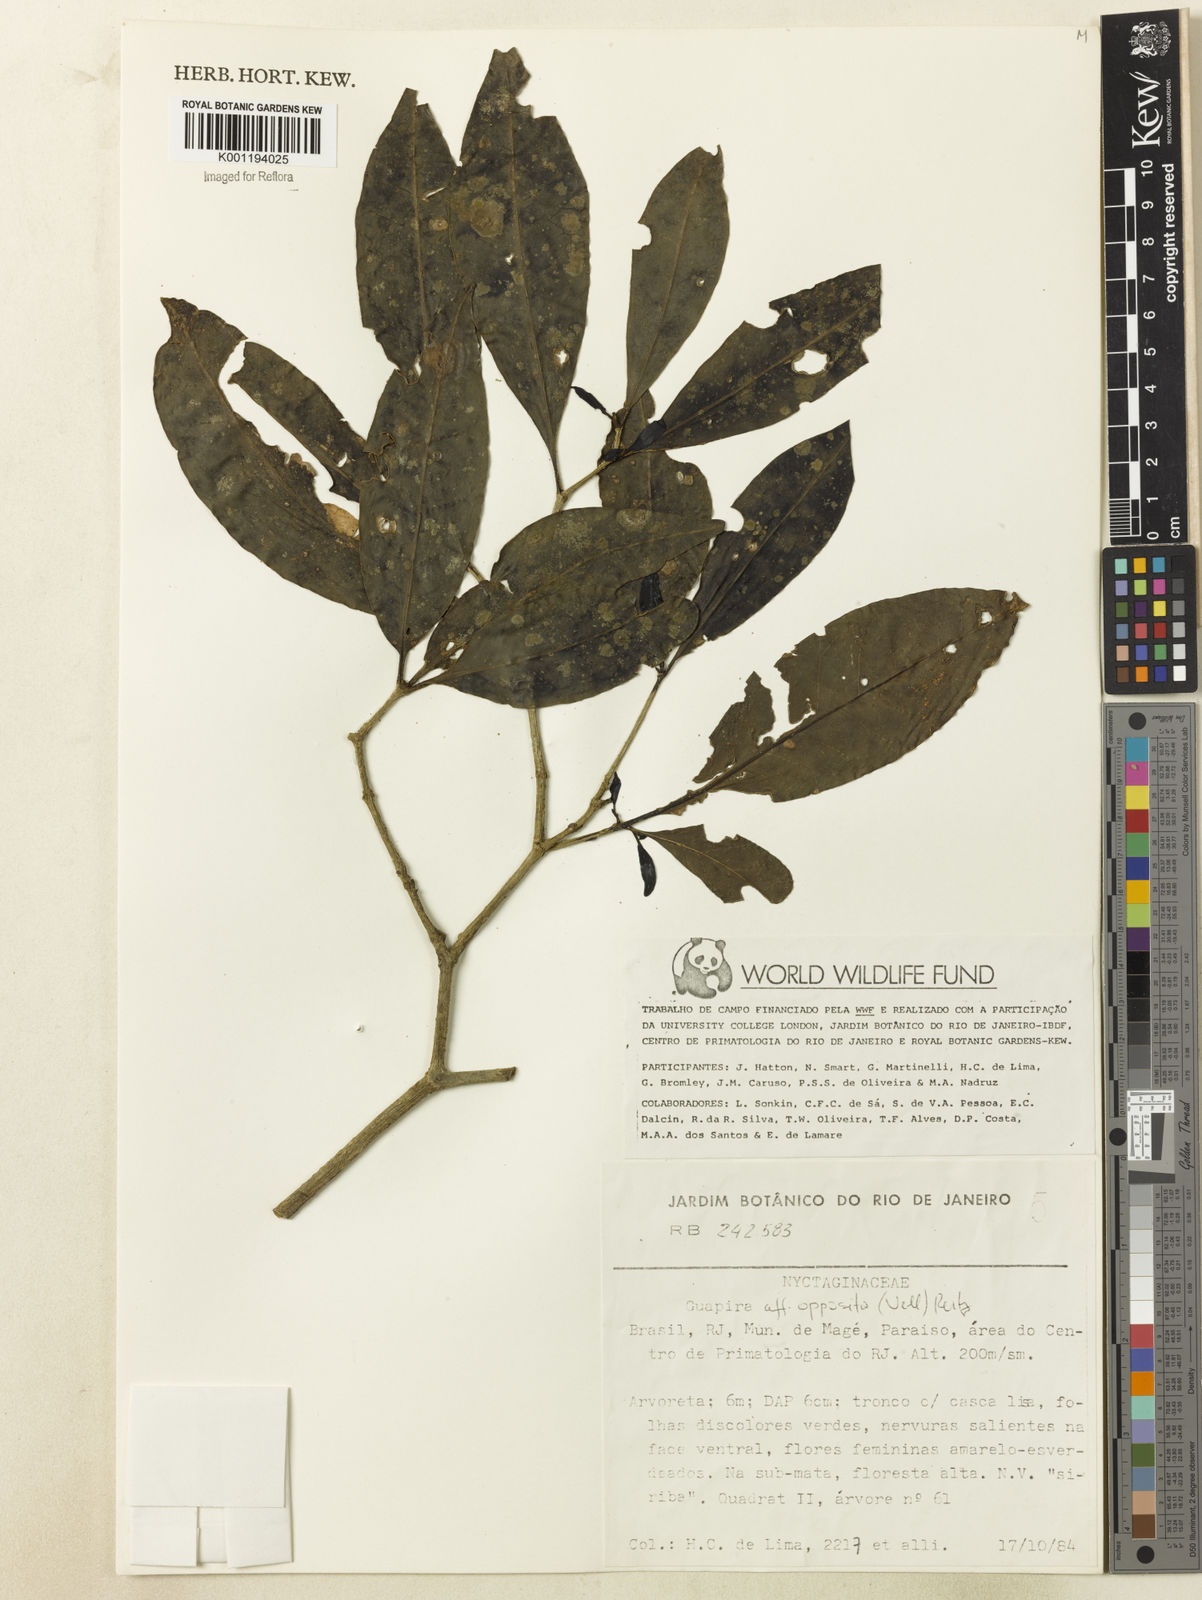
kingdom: Plantae
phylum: Tracheophyta
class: Magnoliopsida
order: Caryophyllales
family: Nyctaginaceae
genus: Guapira
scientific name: Guapira opposita
